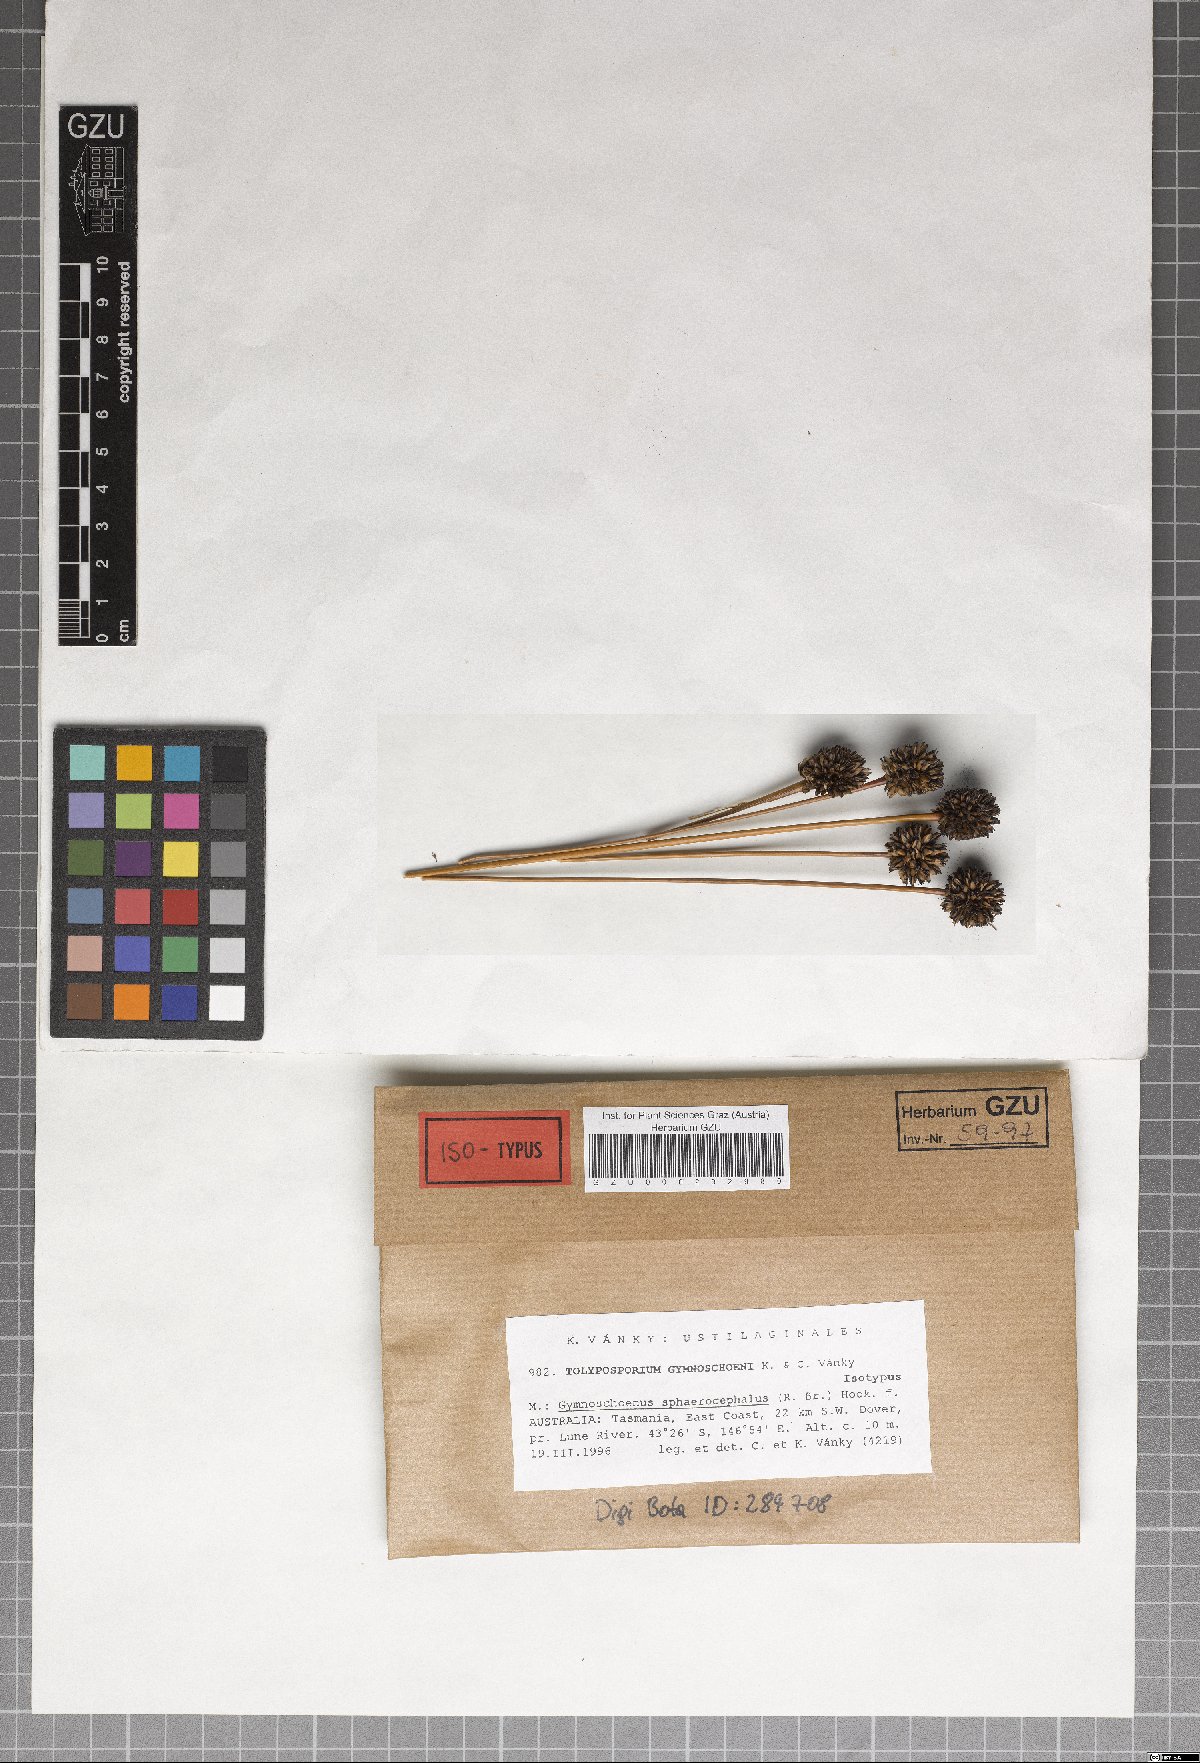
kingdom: Fungi
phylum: Basidiomycota
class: Ustilaginomycetes
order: Ustilaginales
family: Anthracoideaceae
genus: Moreaua
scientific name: Moreaua gymnoschoeni
